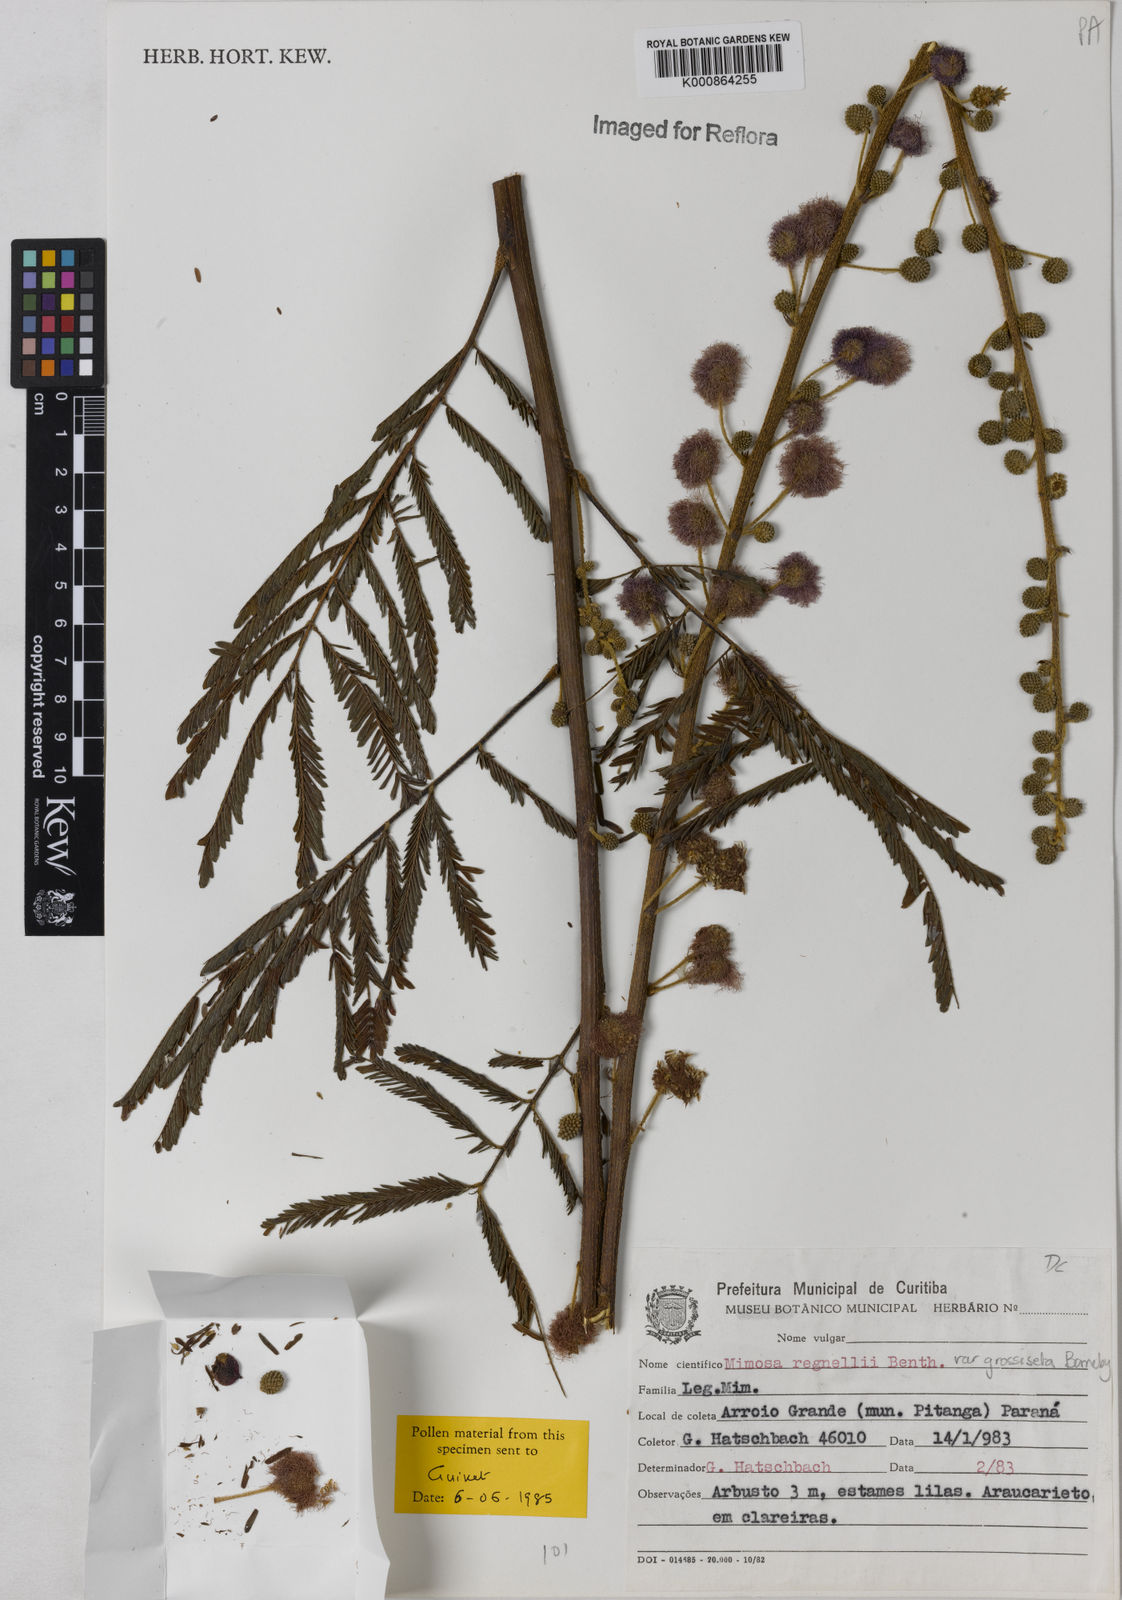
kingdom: Plantae
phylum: Tracheophyta
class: Magnoliopsida
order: Fabales
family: Fabaceae
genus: Mimosa
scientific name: Mimosa regnellii
